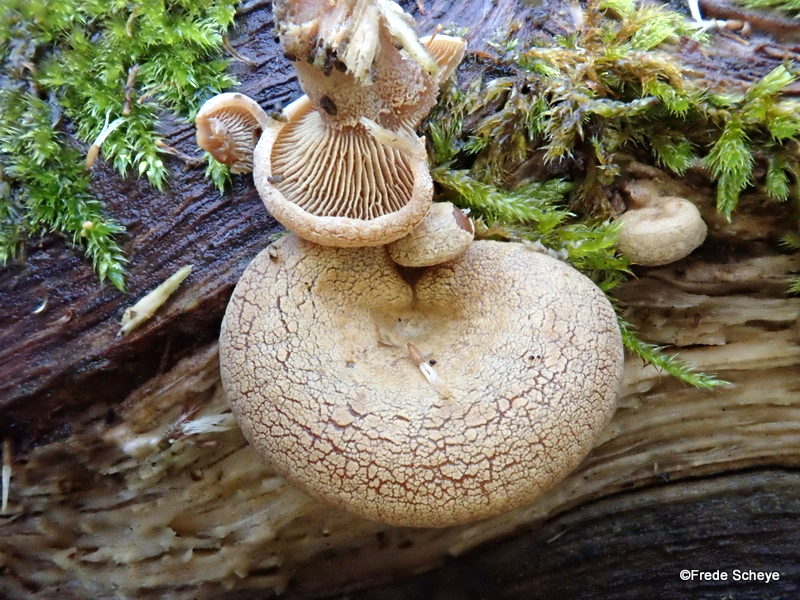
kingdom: Fungi
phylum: Basidiomycota
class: Agaricomycetes
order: Agaricales
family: Mycenaceae
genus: Panellus
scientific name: Panellus stipticus
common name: kliddet epaulethat
